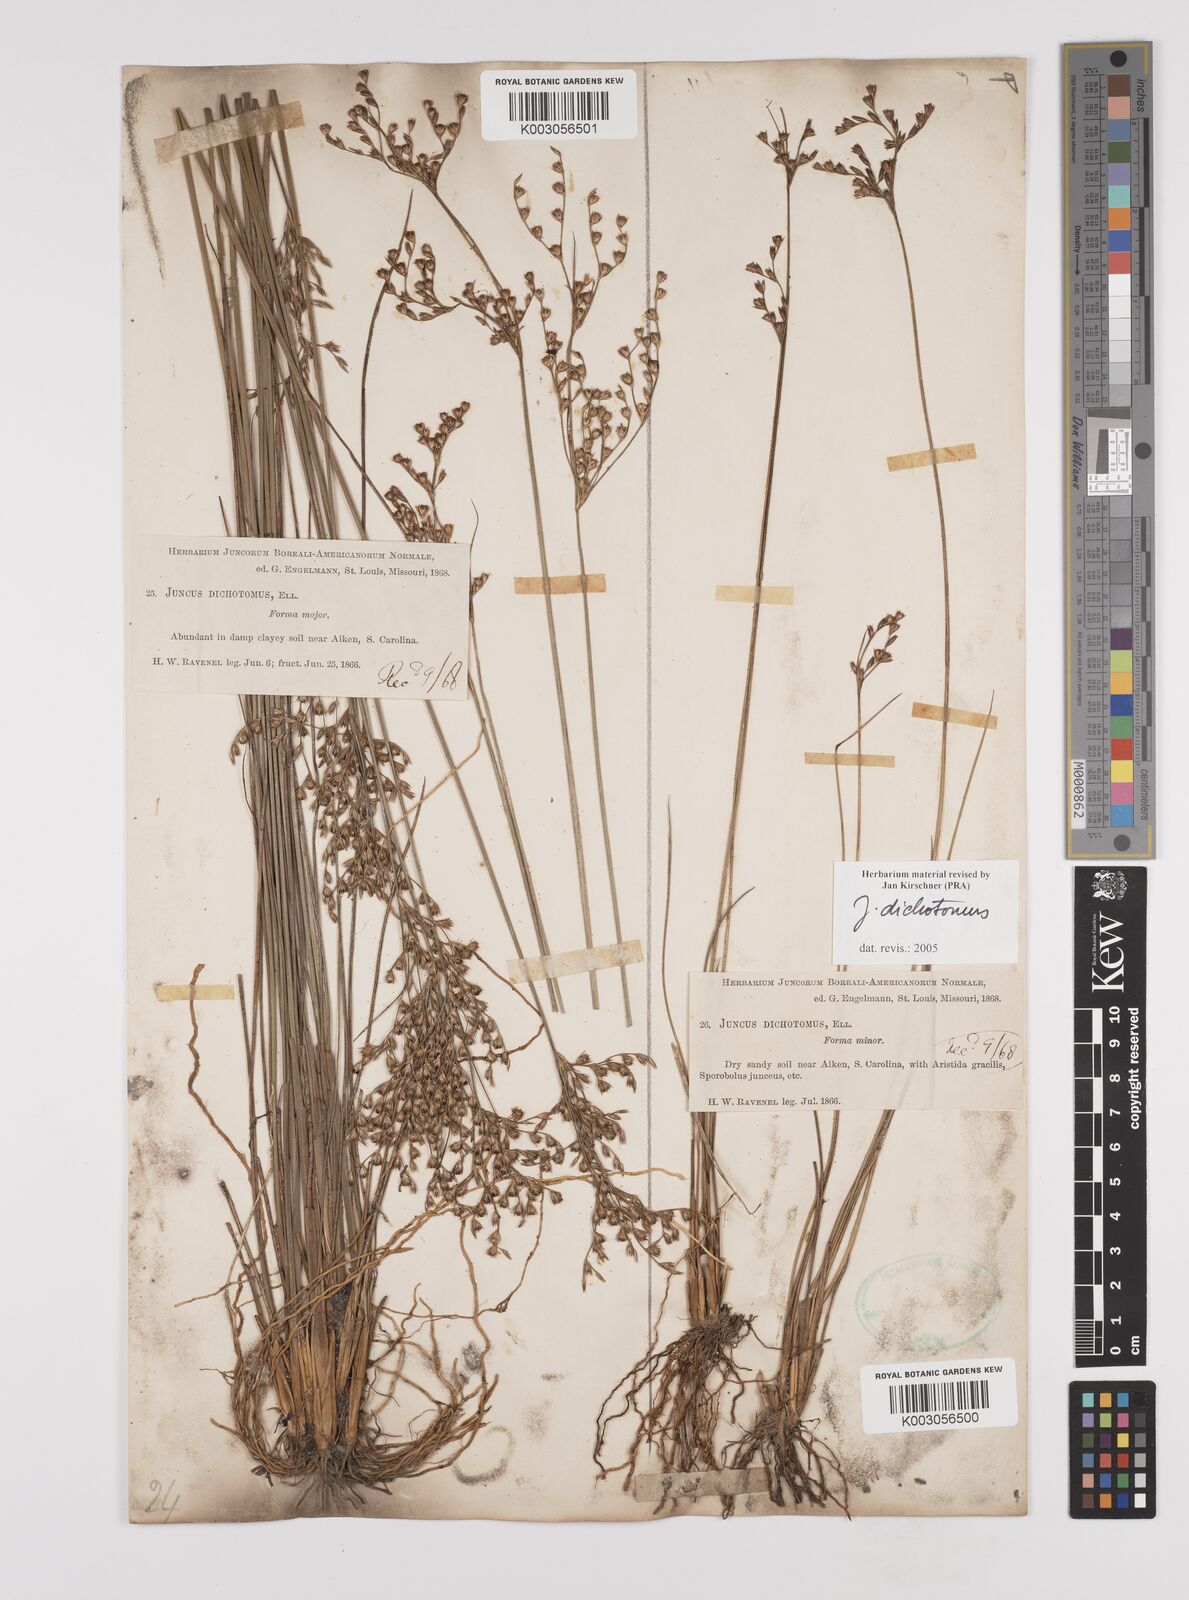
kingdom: Plantae
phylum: Tracheophyta
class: Liliopsida
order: Poales
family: Juncaceae
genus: Juncus
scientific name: Juncus dichotomus
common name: Forked rush
